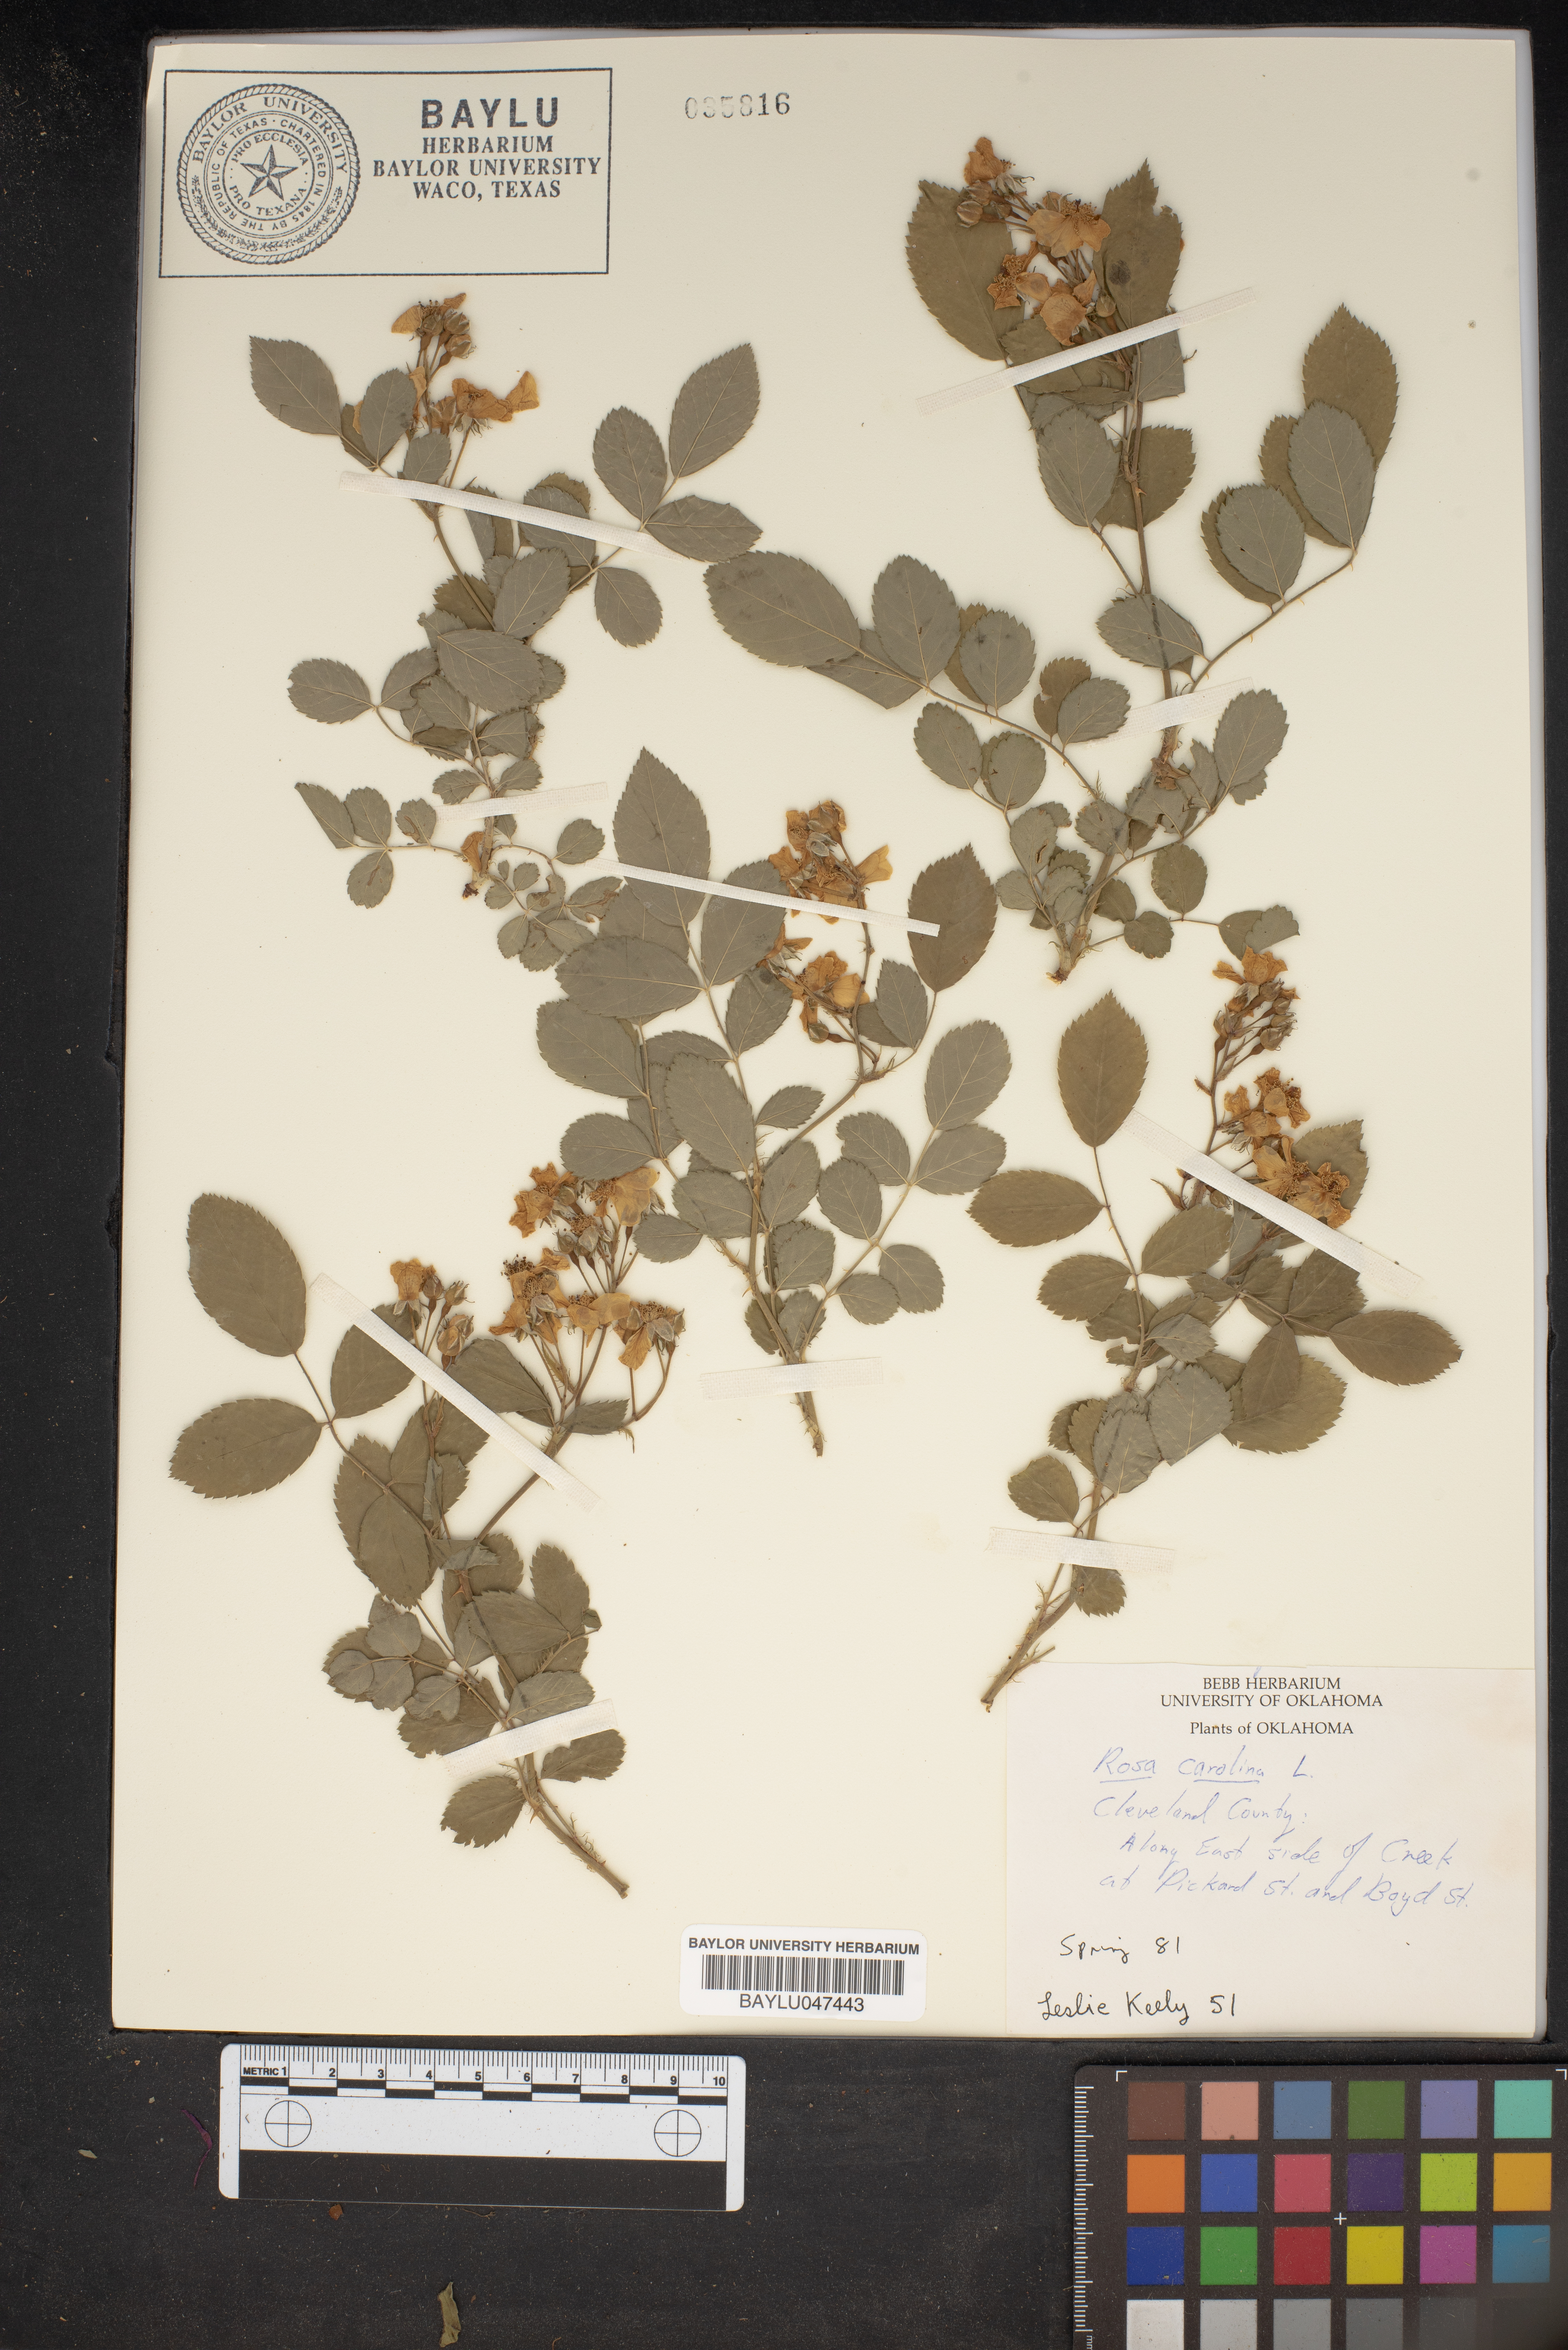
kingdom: Plantae
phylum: Tracheophyta
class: Magnoliopsida
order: Rosales
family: Rosaceae
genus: Rosa
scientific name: Rosa carolina
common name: Pasture rose
